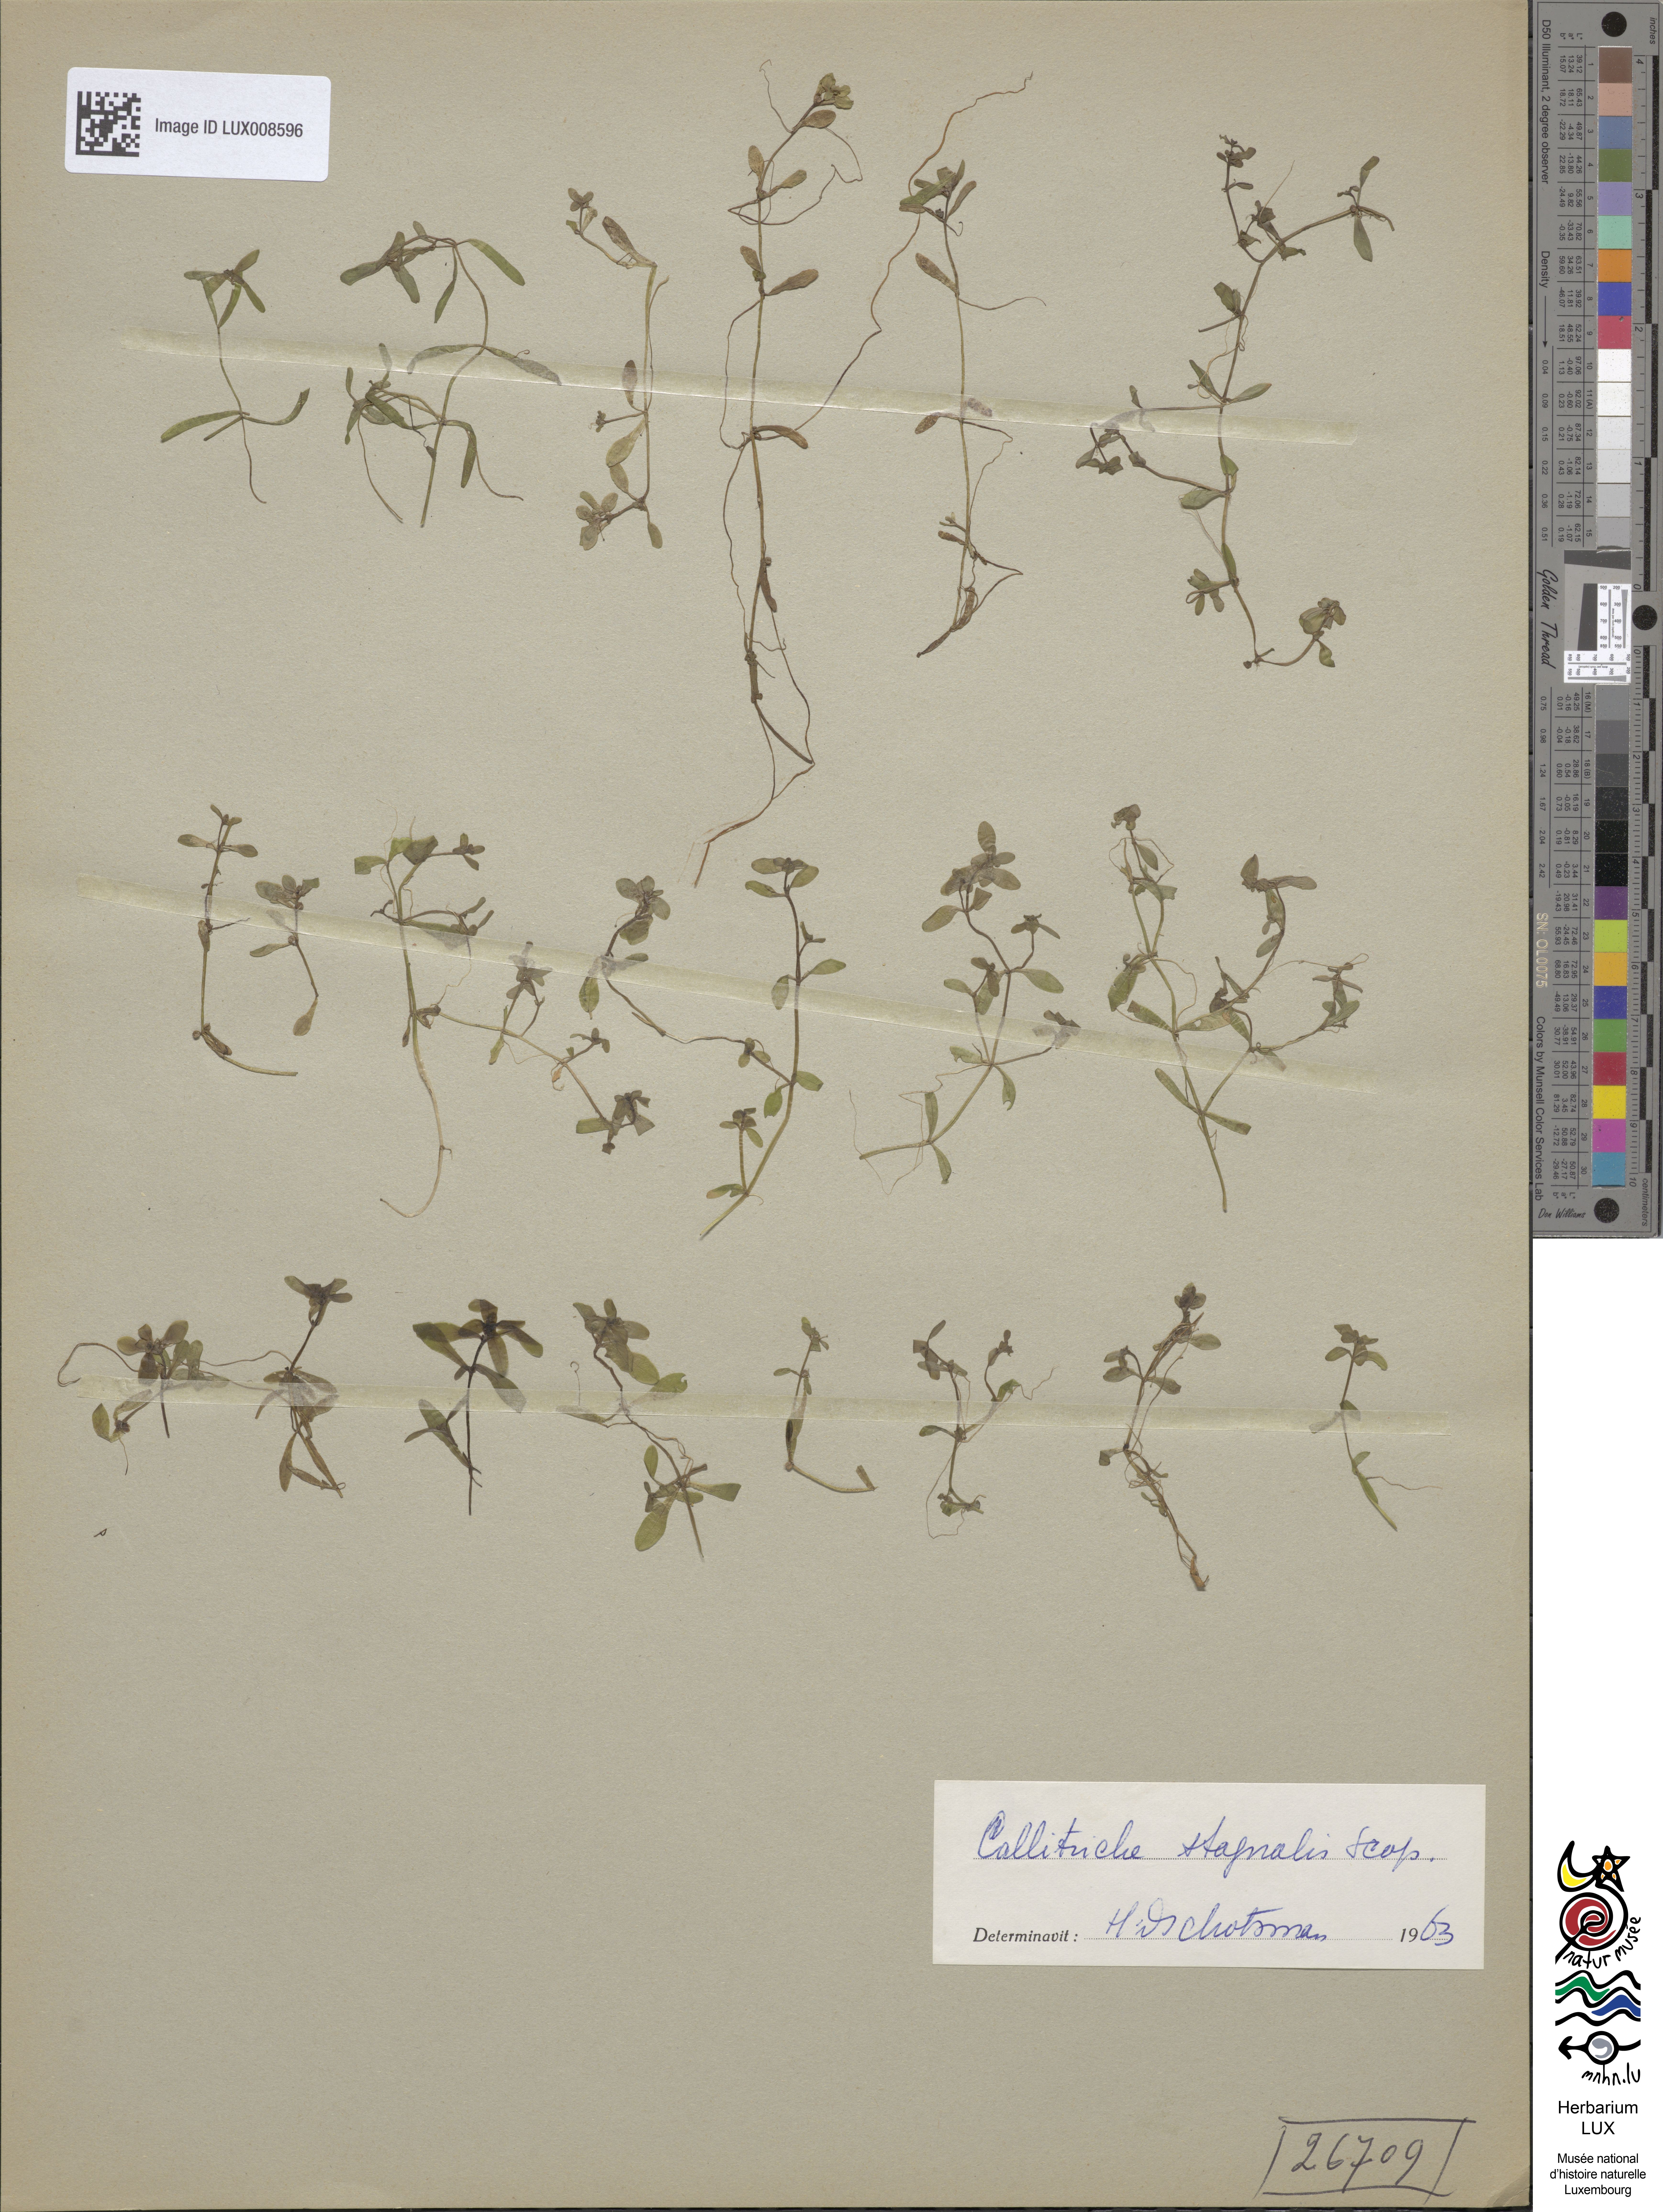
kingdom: Plantae
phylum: Tracheophyta
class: Magnoliopsida
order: Lamiales
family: Plantaginaceae
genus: Callitriche
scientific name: Callitriche
